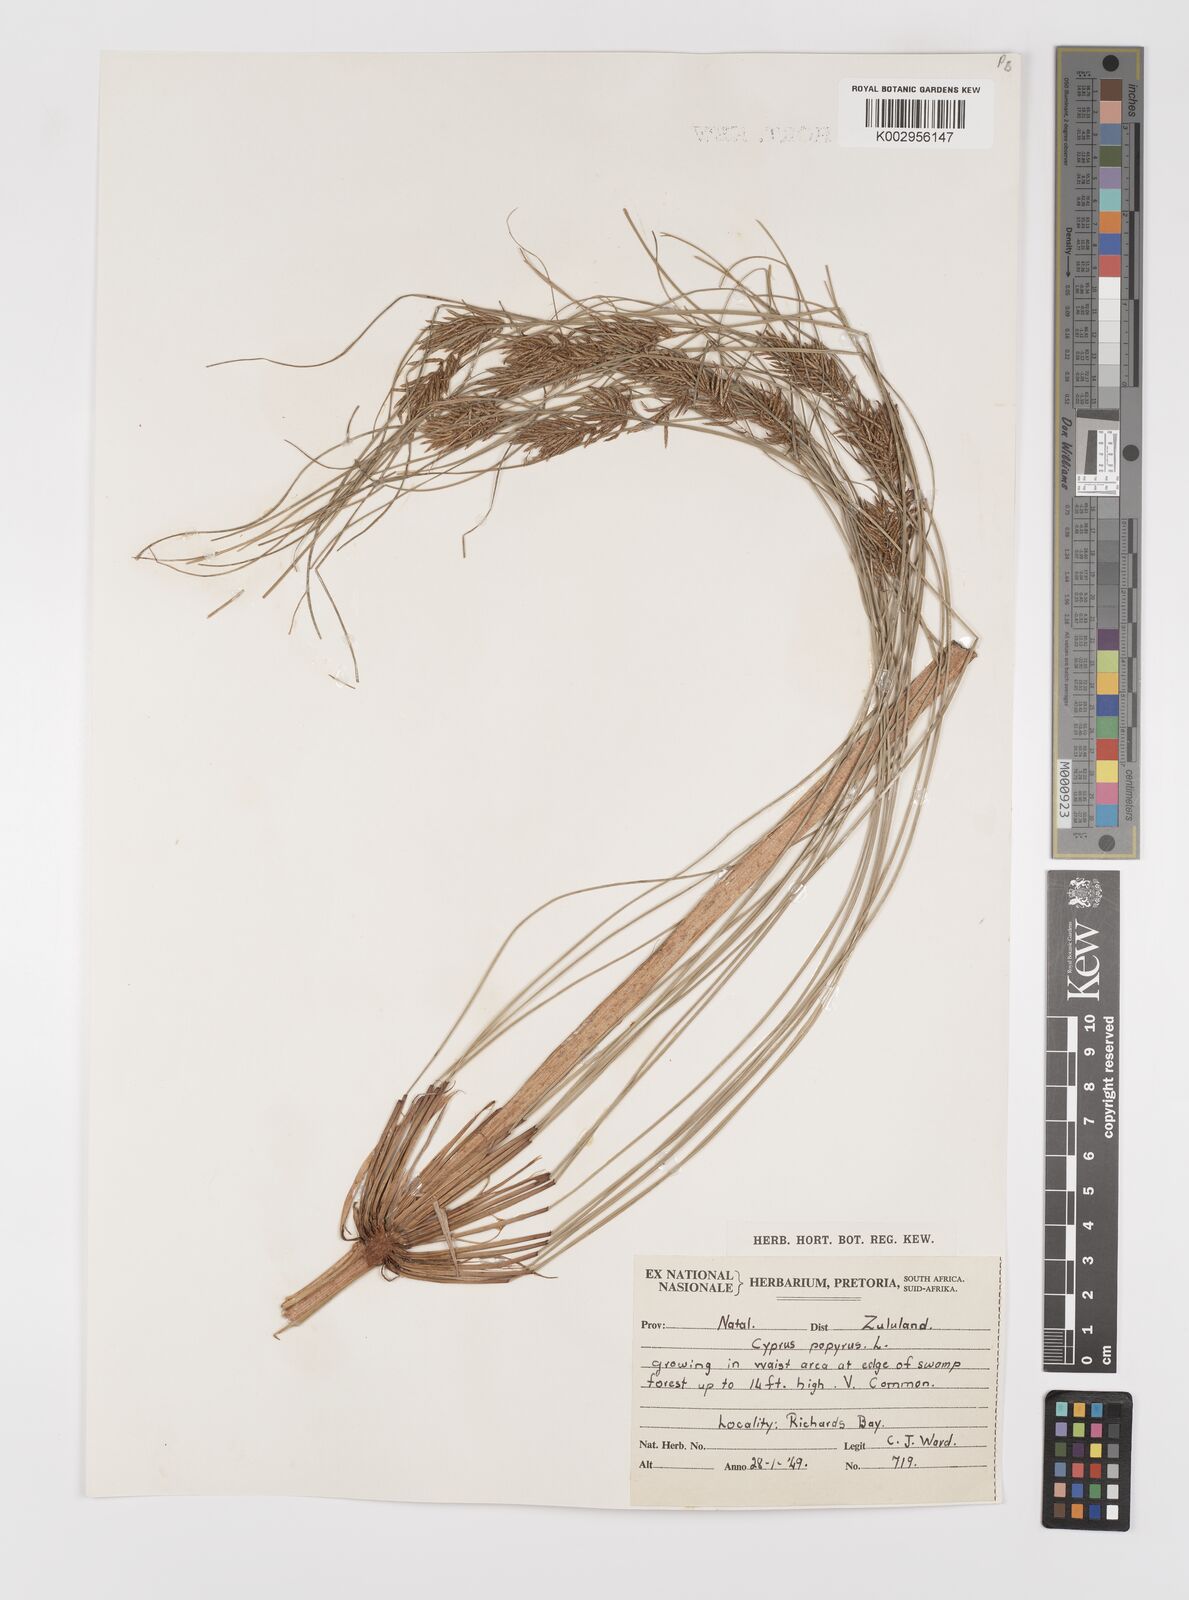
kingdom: Plantae
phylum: Tracheophyta
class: Liliopsida
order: Poales
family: Cyperaceae
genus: Cyperus
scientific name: Cyperus papyrus
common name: Papyrus
